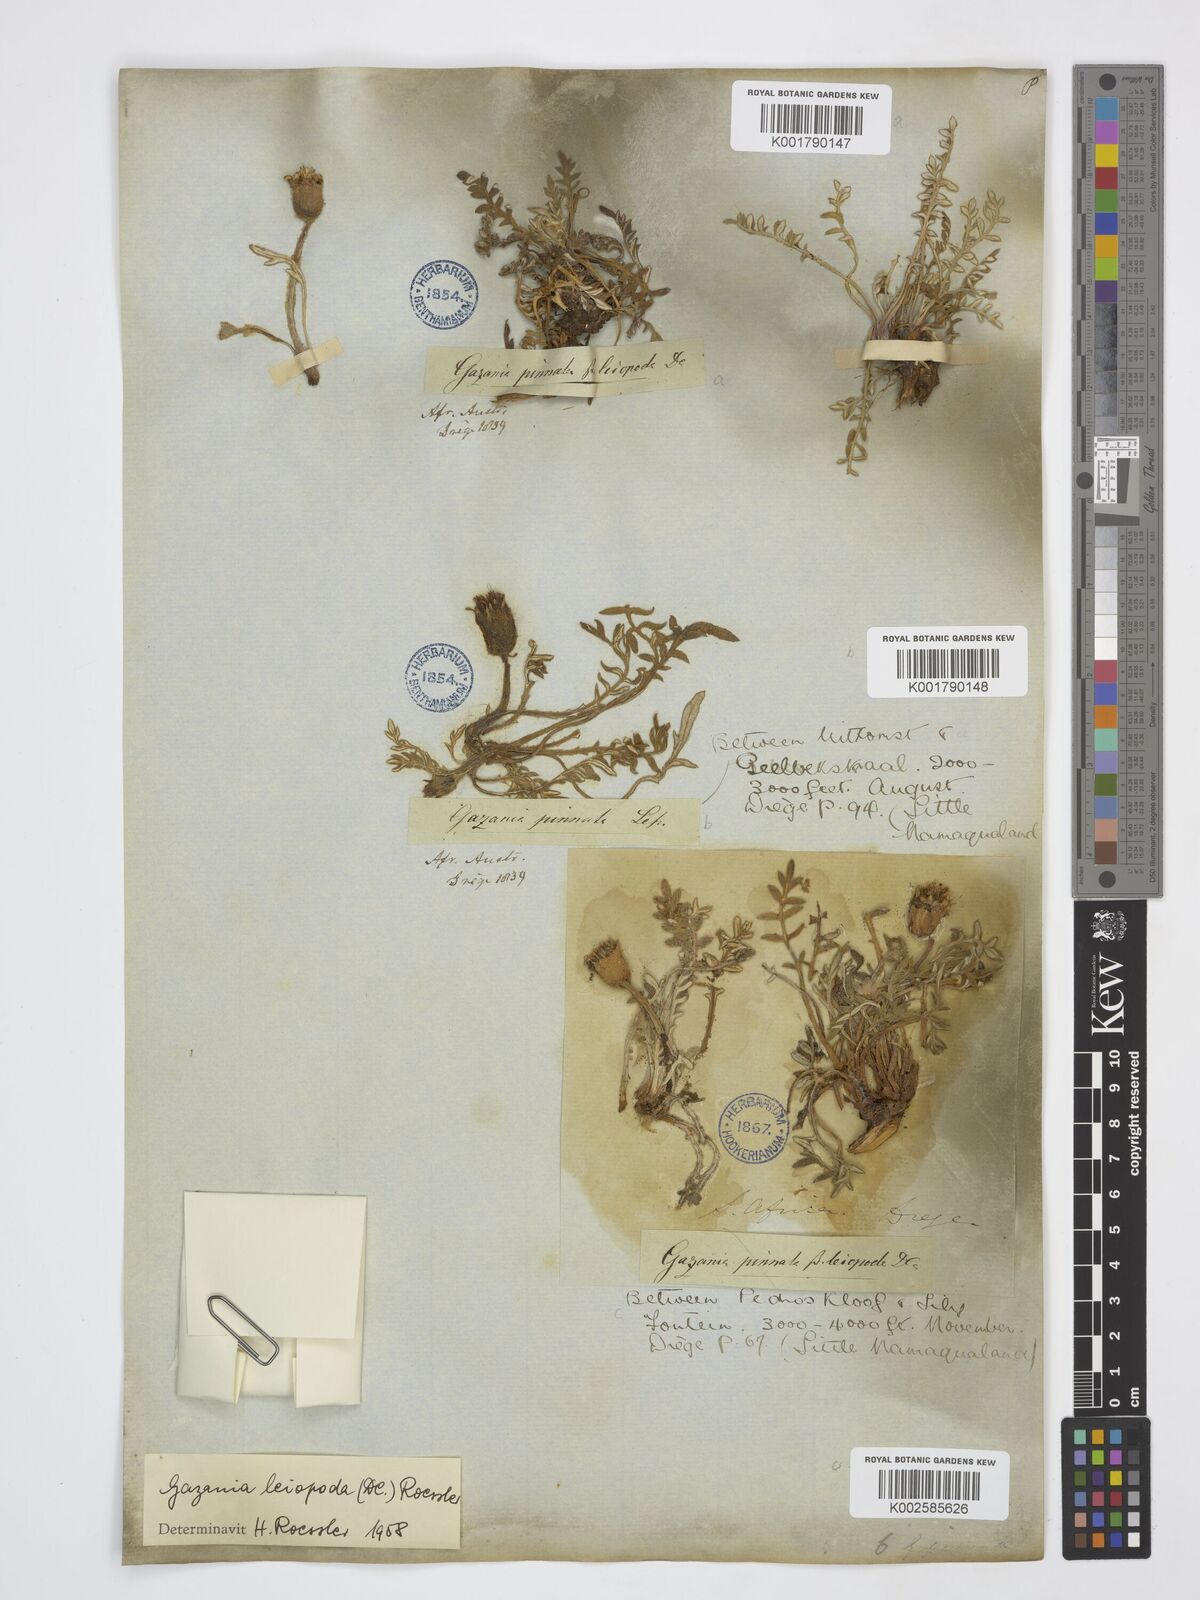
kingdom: Plantae
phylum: Tracheophyta
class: Magnoliopsida
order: Asterales
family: Asteraceae
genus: Gazania
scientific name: Gazania leiopoda
